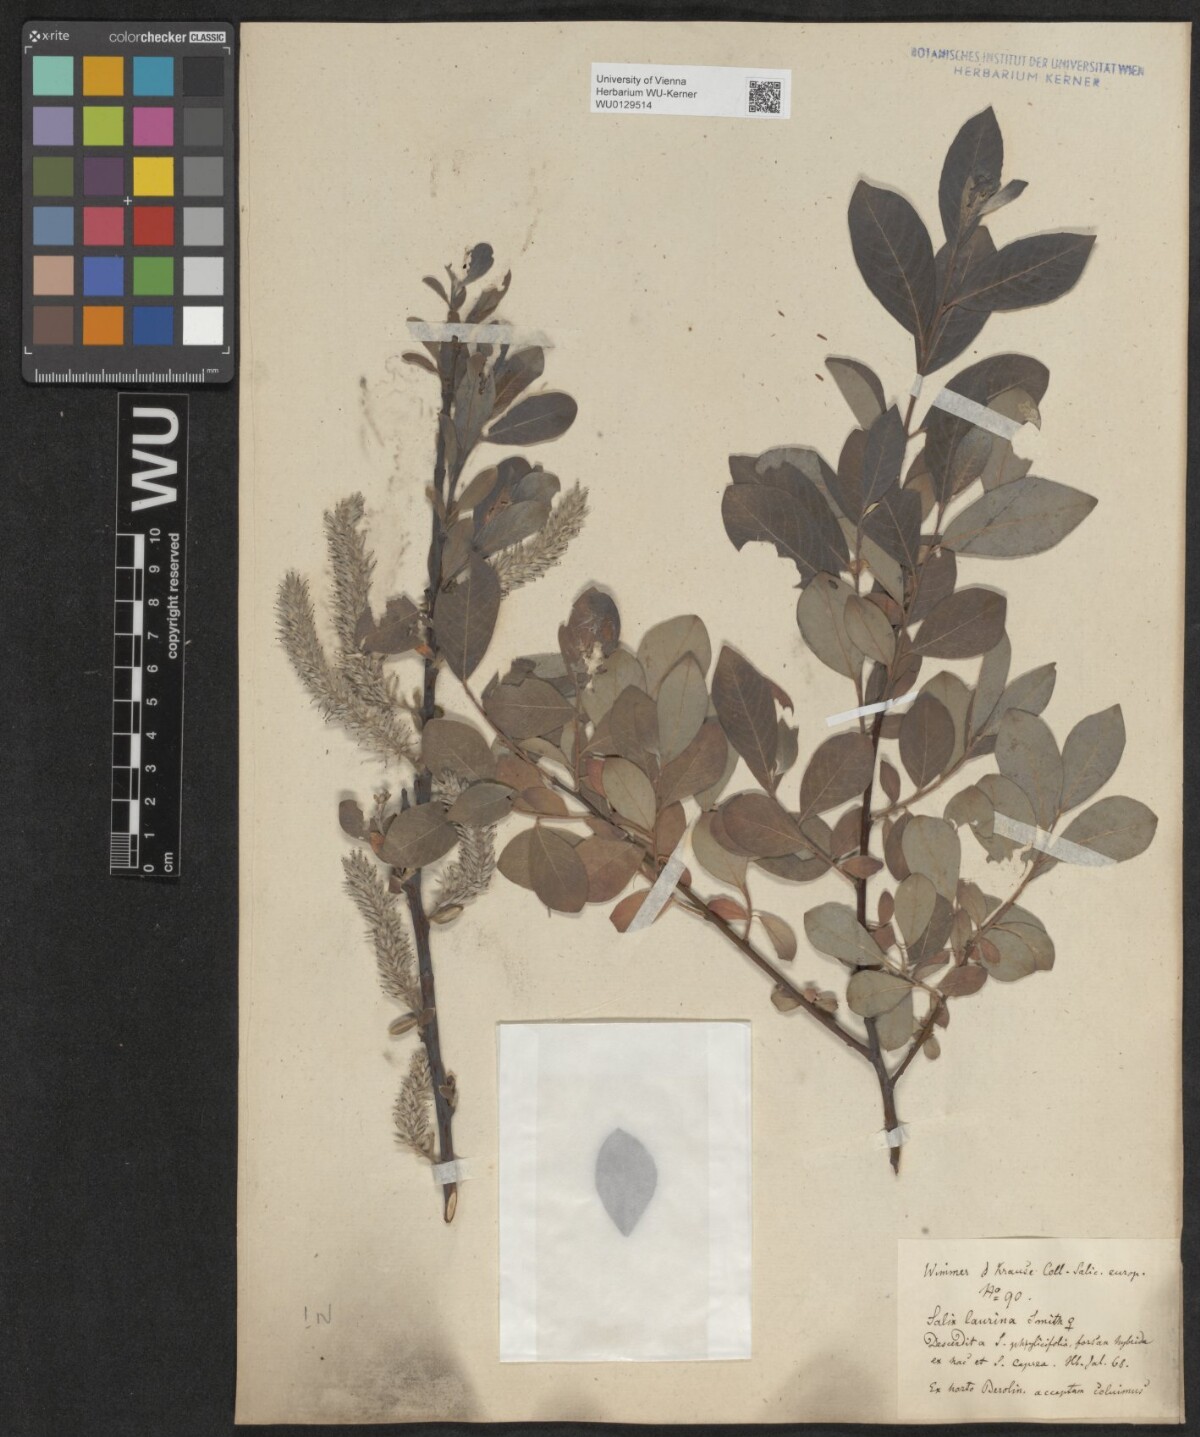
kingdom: Plantae
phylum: Tracheophyta
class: Magnoliopsida
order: Malpighiales
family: Salicaceae
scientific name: Salicaceae
